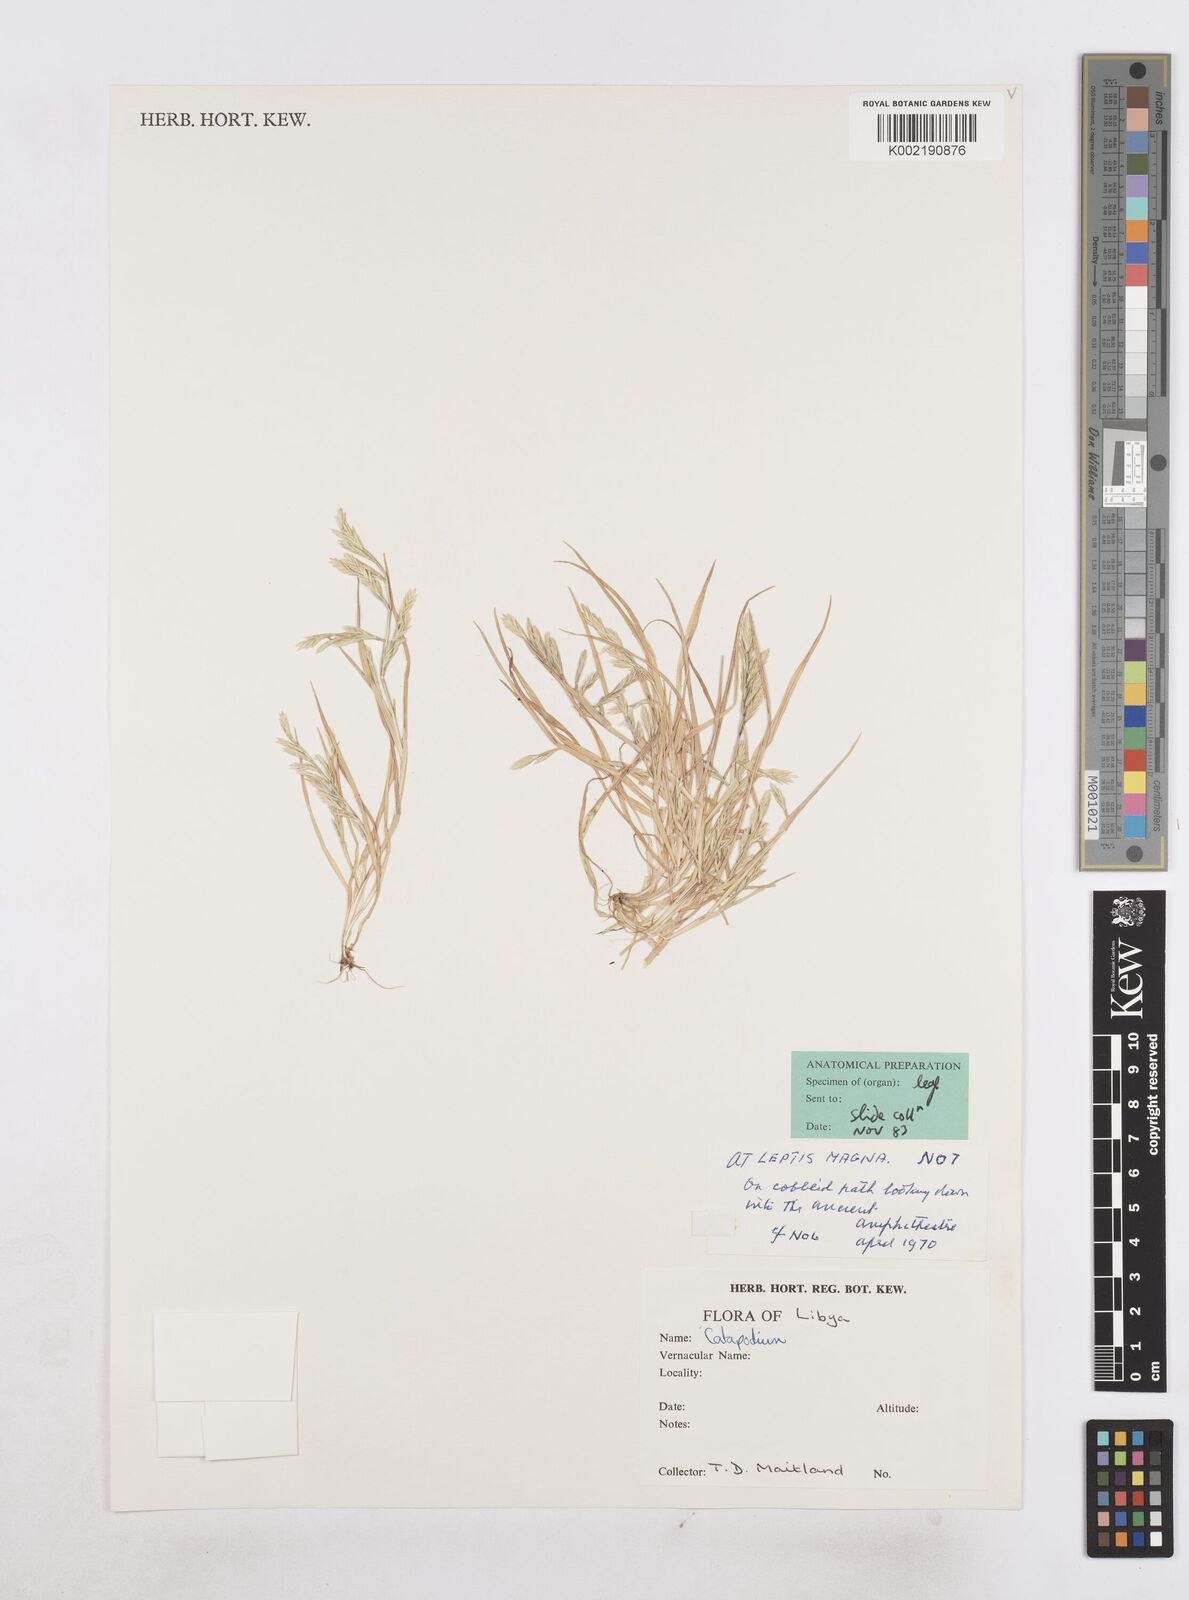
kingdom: Plantae
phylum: Tracheophyta
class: Liliopsida
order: Poales
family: Poaceae
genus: Desmazeria
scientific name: Desmazeria philistaea
